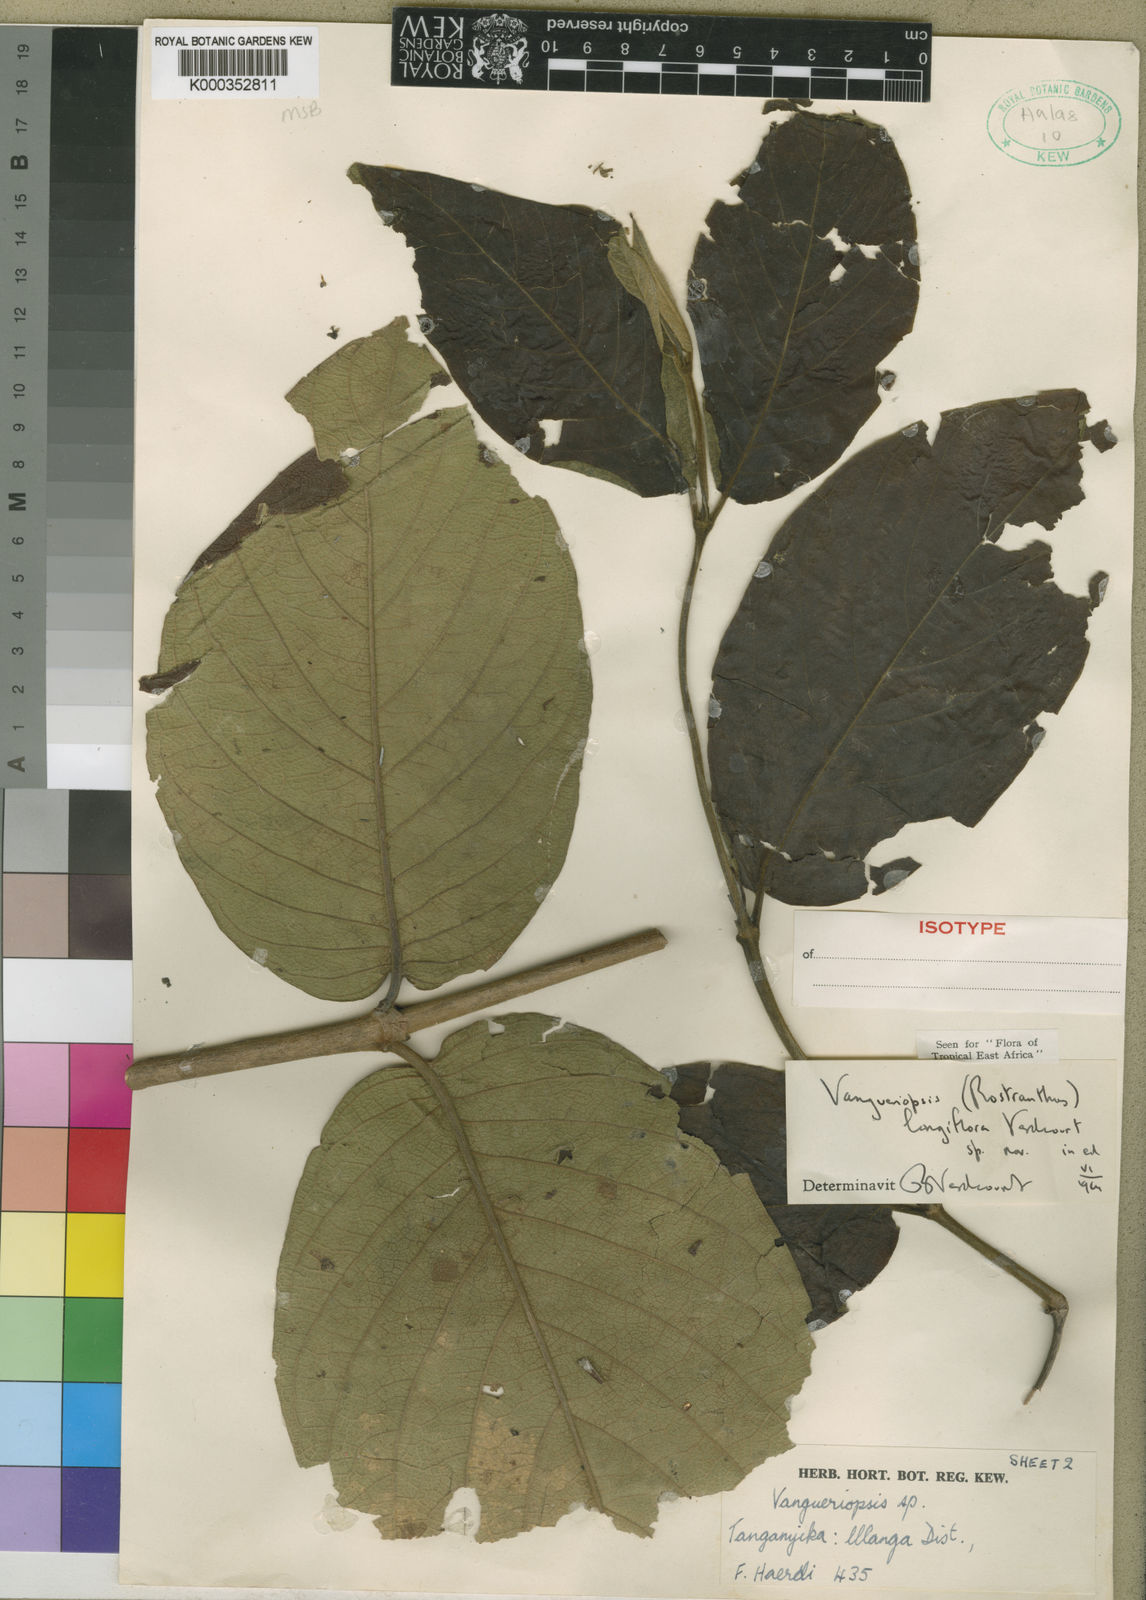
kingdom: Plantae
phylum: Tracheophyta
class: Magnoliopsida
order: Gentianales
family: Rubiaceae
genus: Vangueriopsis
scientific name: Vangueriopsis longiflora
